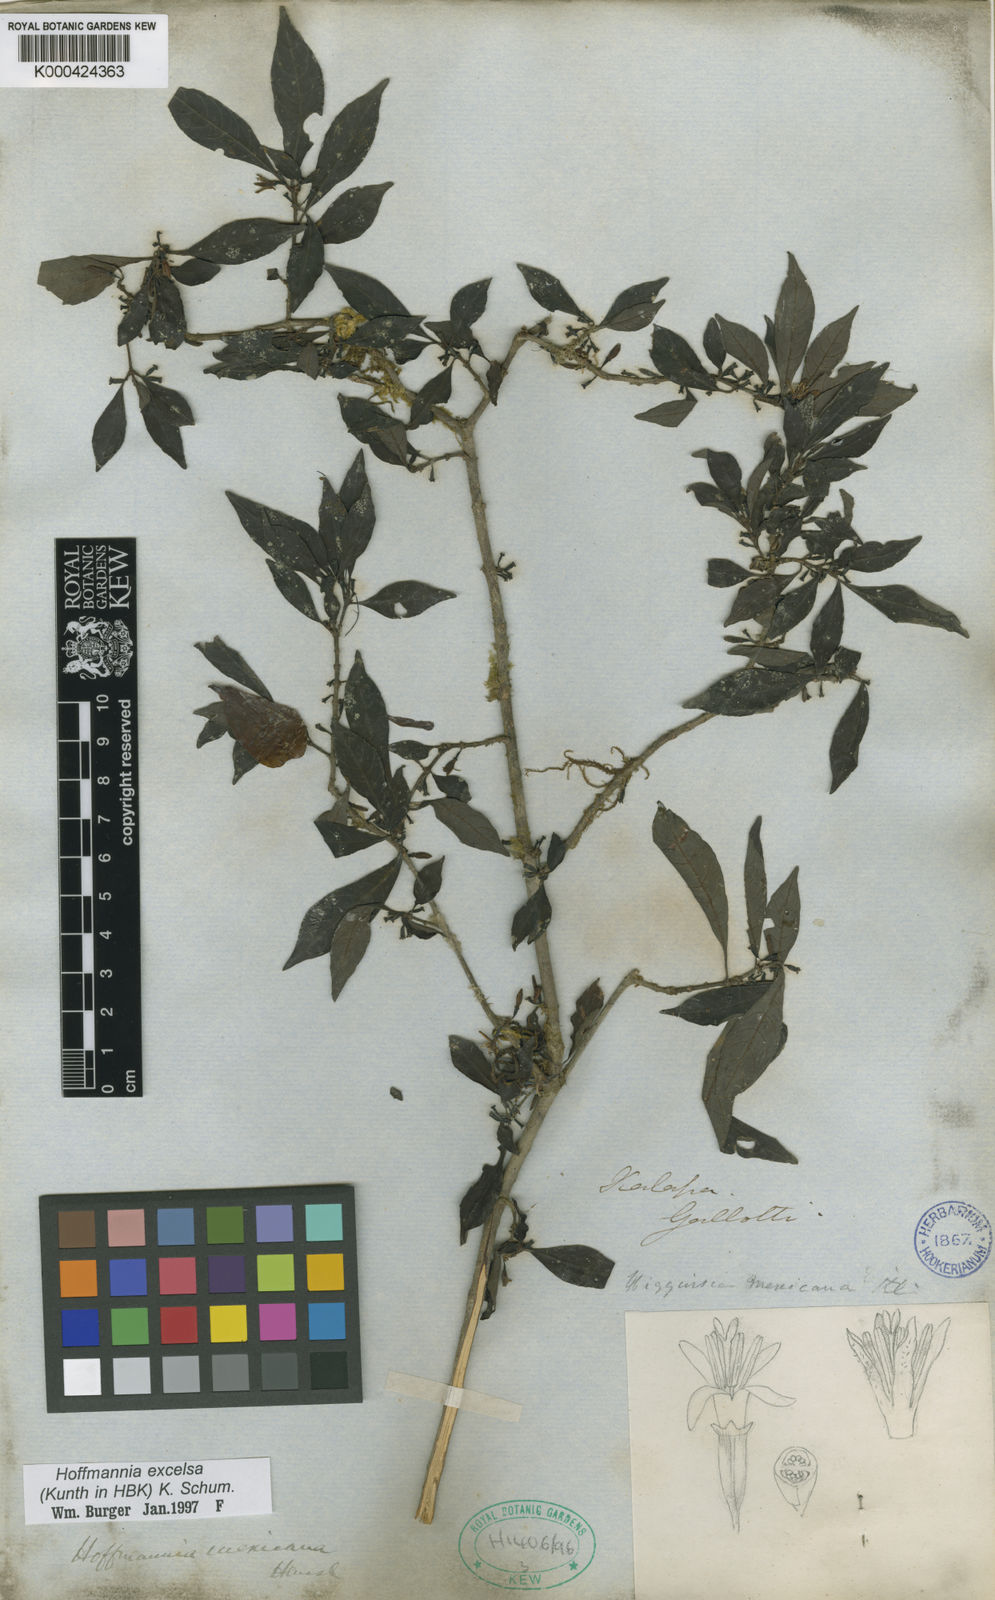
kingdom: Plantae
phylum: Tracheophyta
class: Magnoliopsida
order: Gentianales
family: Rubiaceae
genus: Hoffmannia
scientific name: Hoffmannia excelsa
